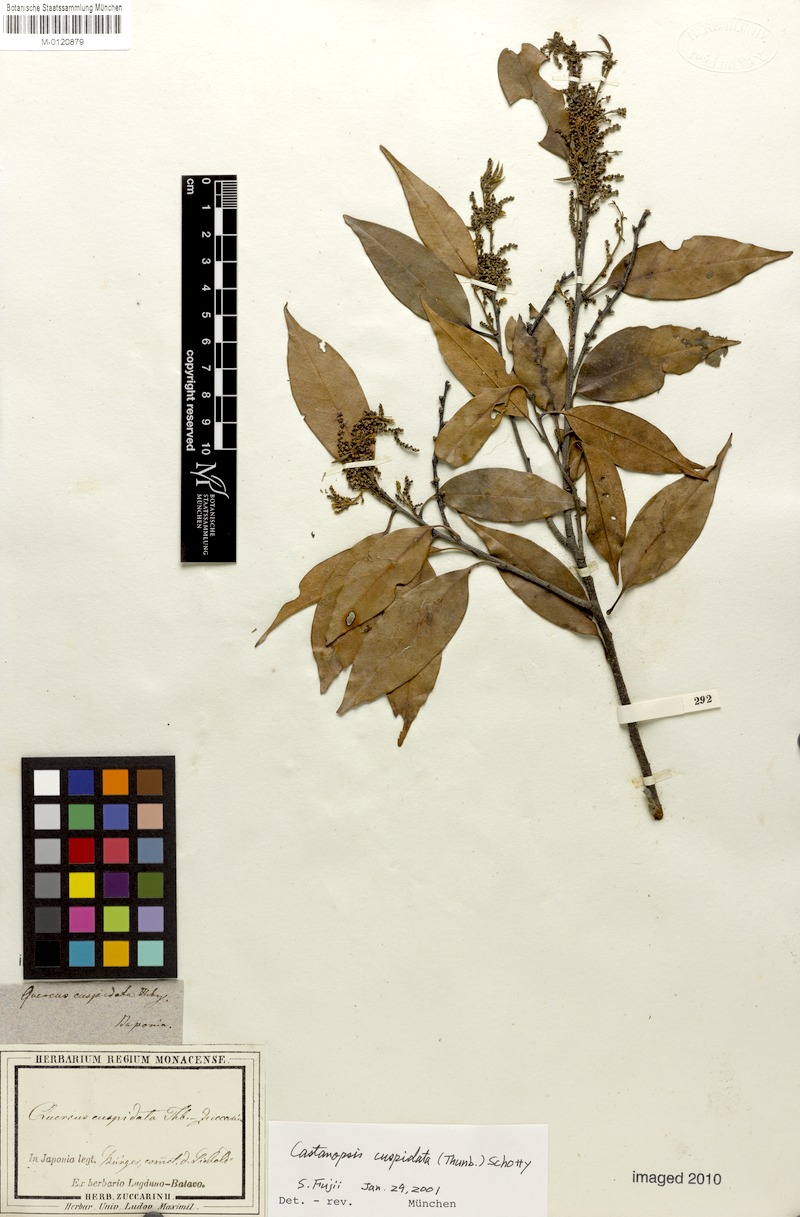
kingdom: Plantae
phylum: Tracheophyta
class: Magnoliopsida
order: Fagales
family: Fagaceae
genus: Castanopsis
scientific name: Castanopsis cuspidata
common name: Japanese chinquapin
